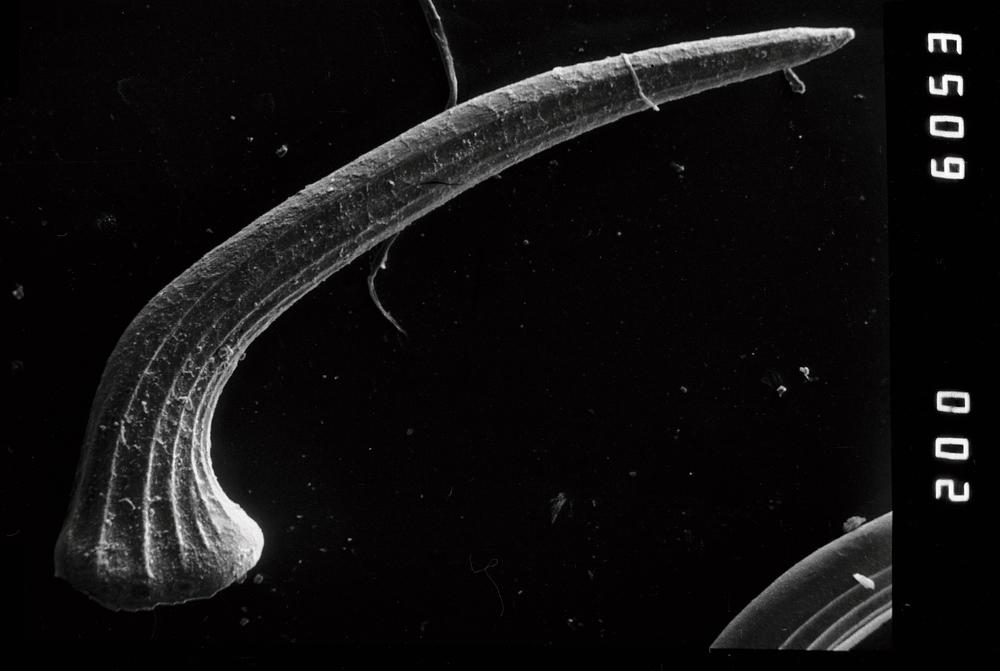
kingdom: Animalia
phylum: Chordata
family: Protopanderodontidae
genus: Scolopodus
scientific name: Scolopodus striatus
